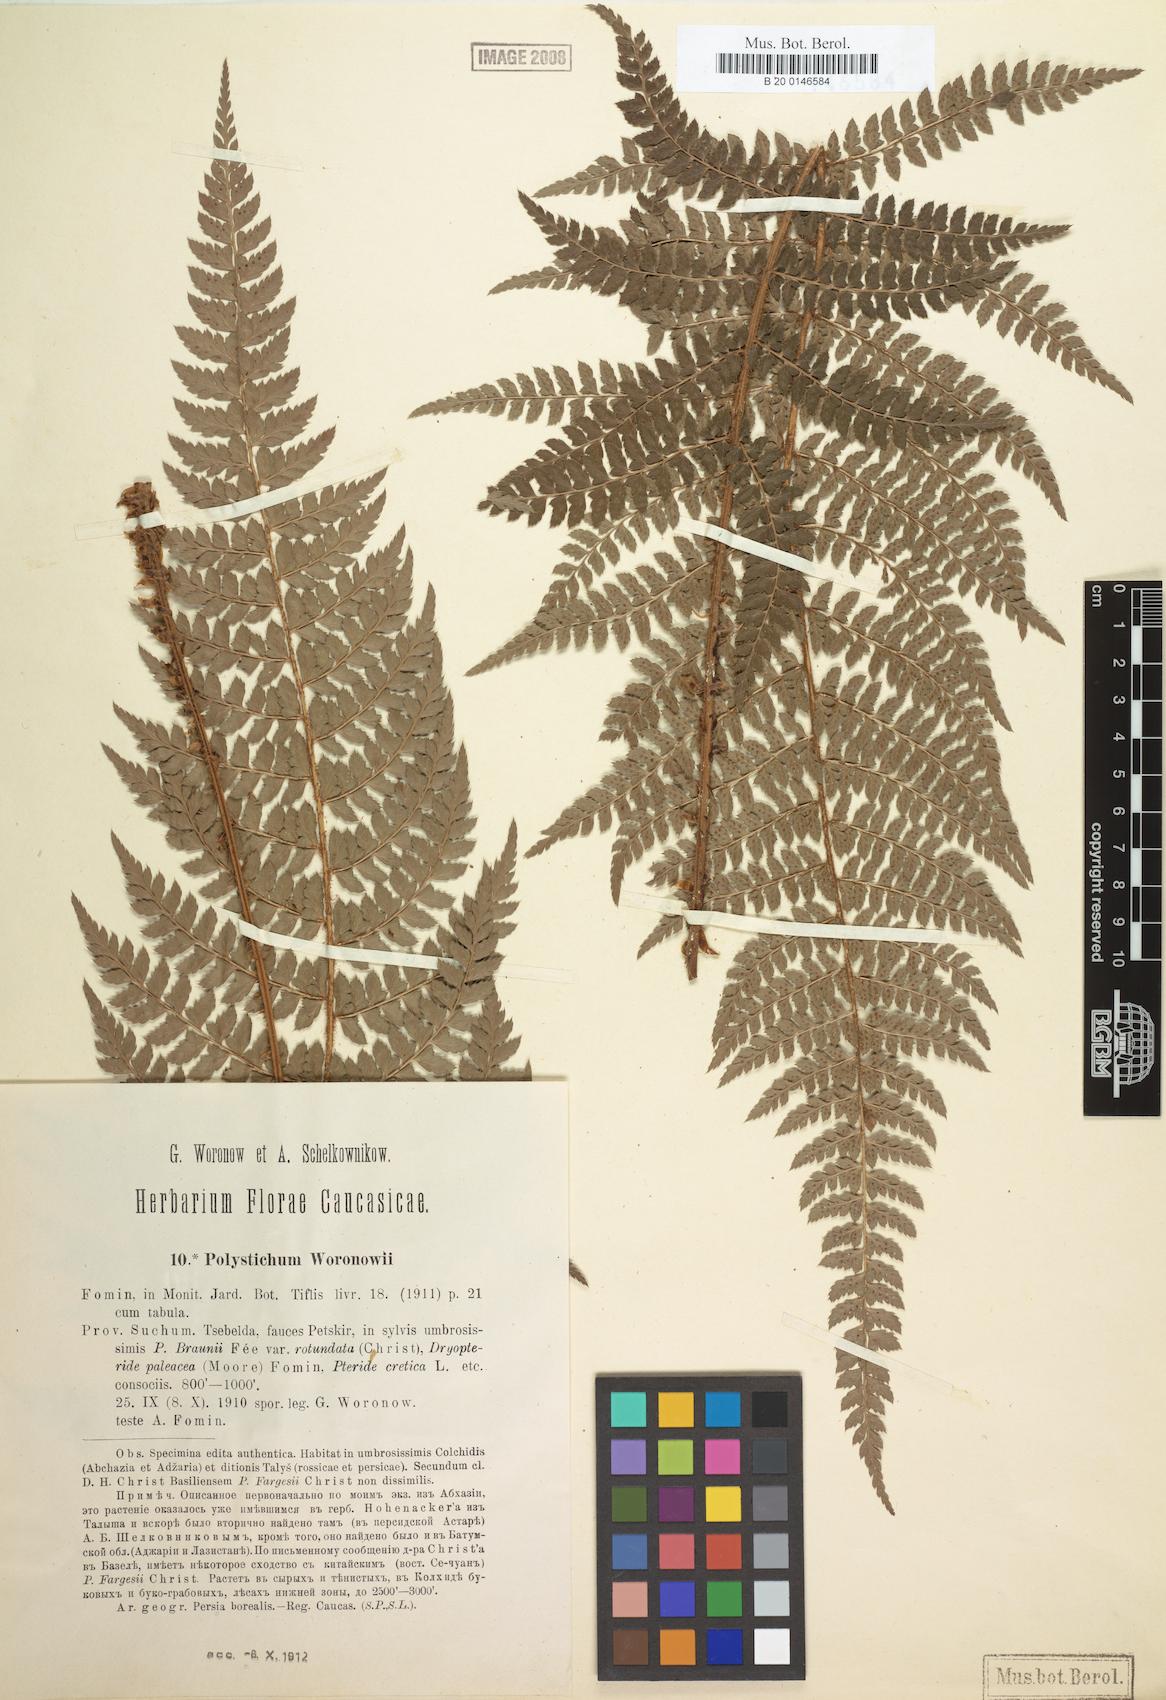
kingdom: Plantae
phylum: Tracheophyta
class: Polypodiopsida
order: Polypodiales
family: Dryopteridaceae
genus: Polystichum
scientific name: Polystichum woronowii
